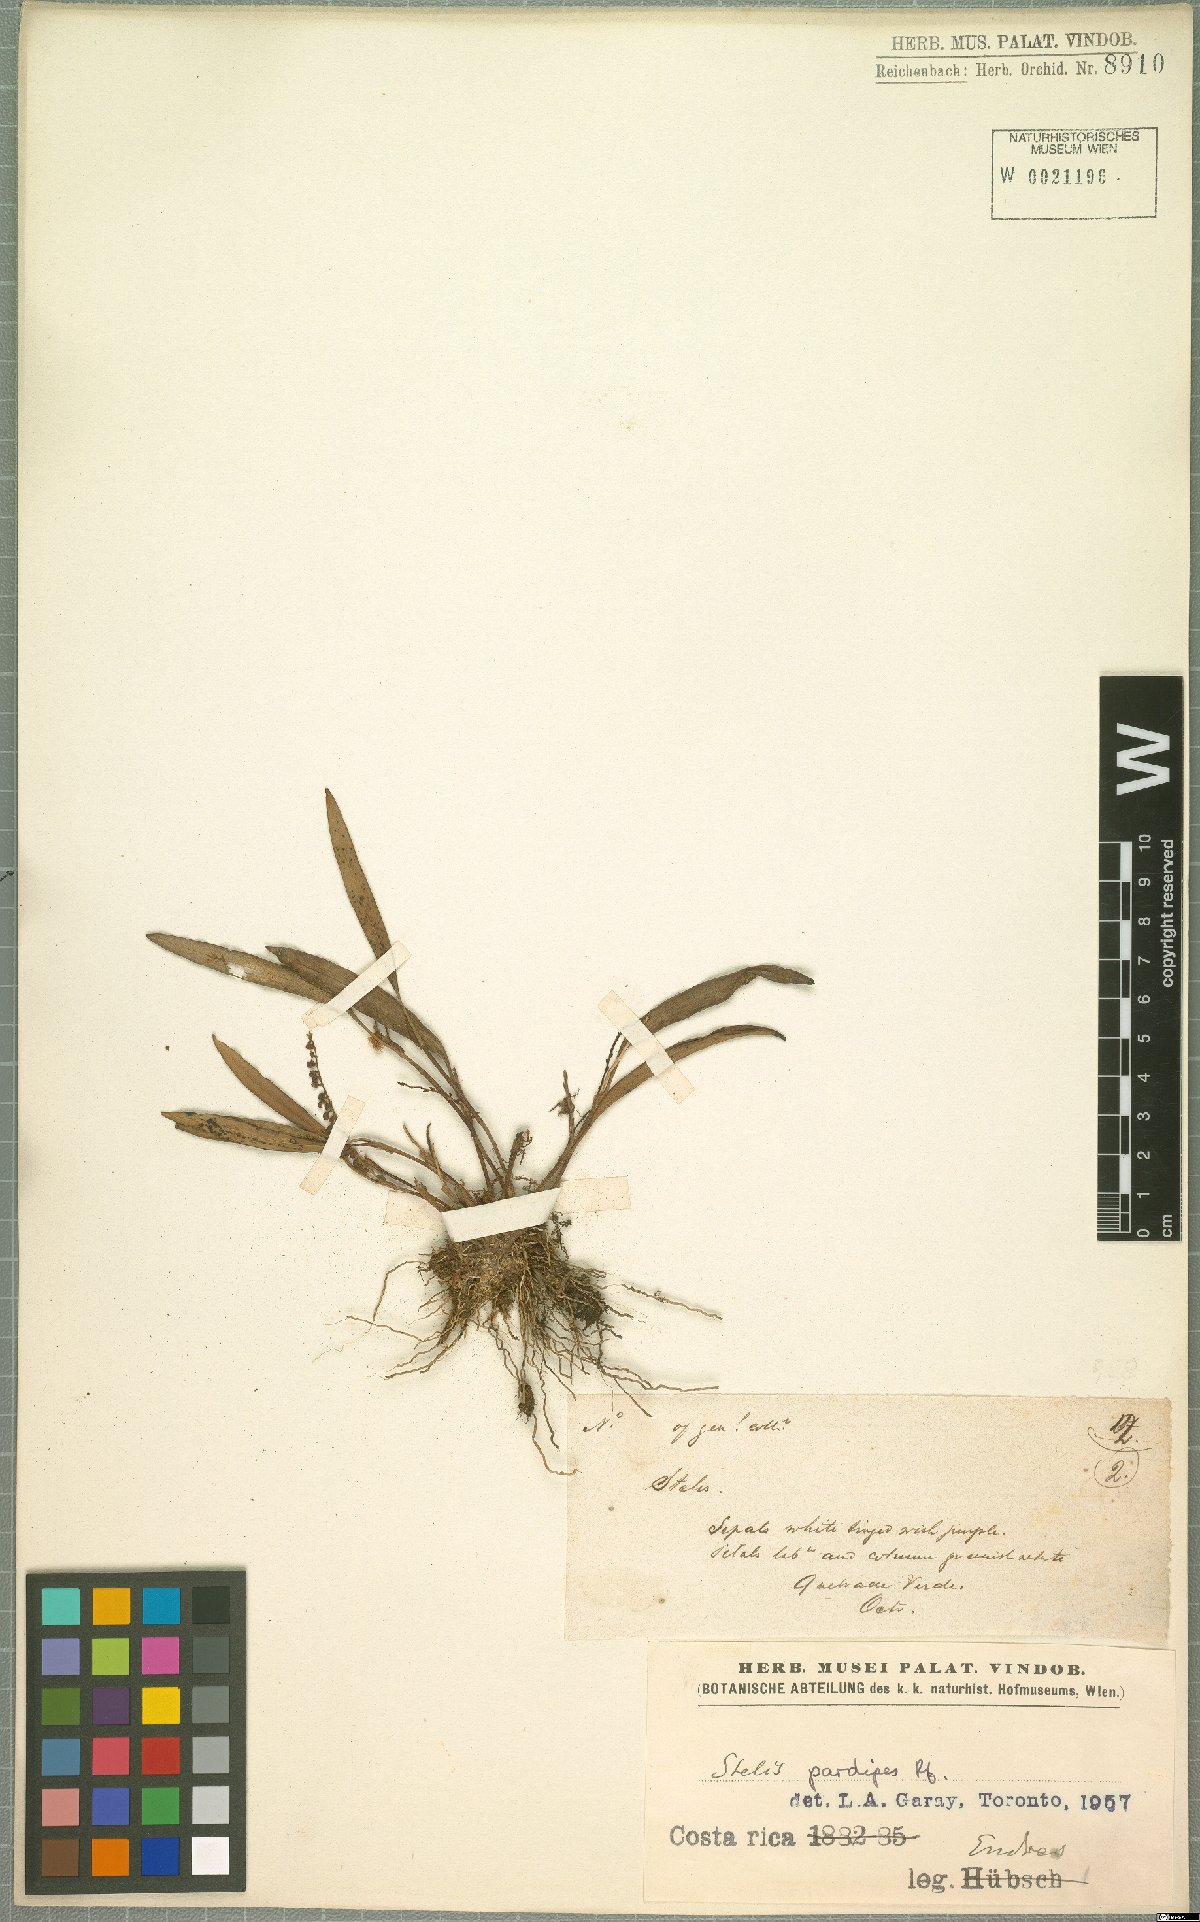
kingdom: Plantae
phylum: Tracheophyta
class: Liliopsida
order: Asparagales
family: Orchidaceae
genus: Stelis
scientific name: Stelis pardipes
